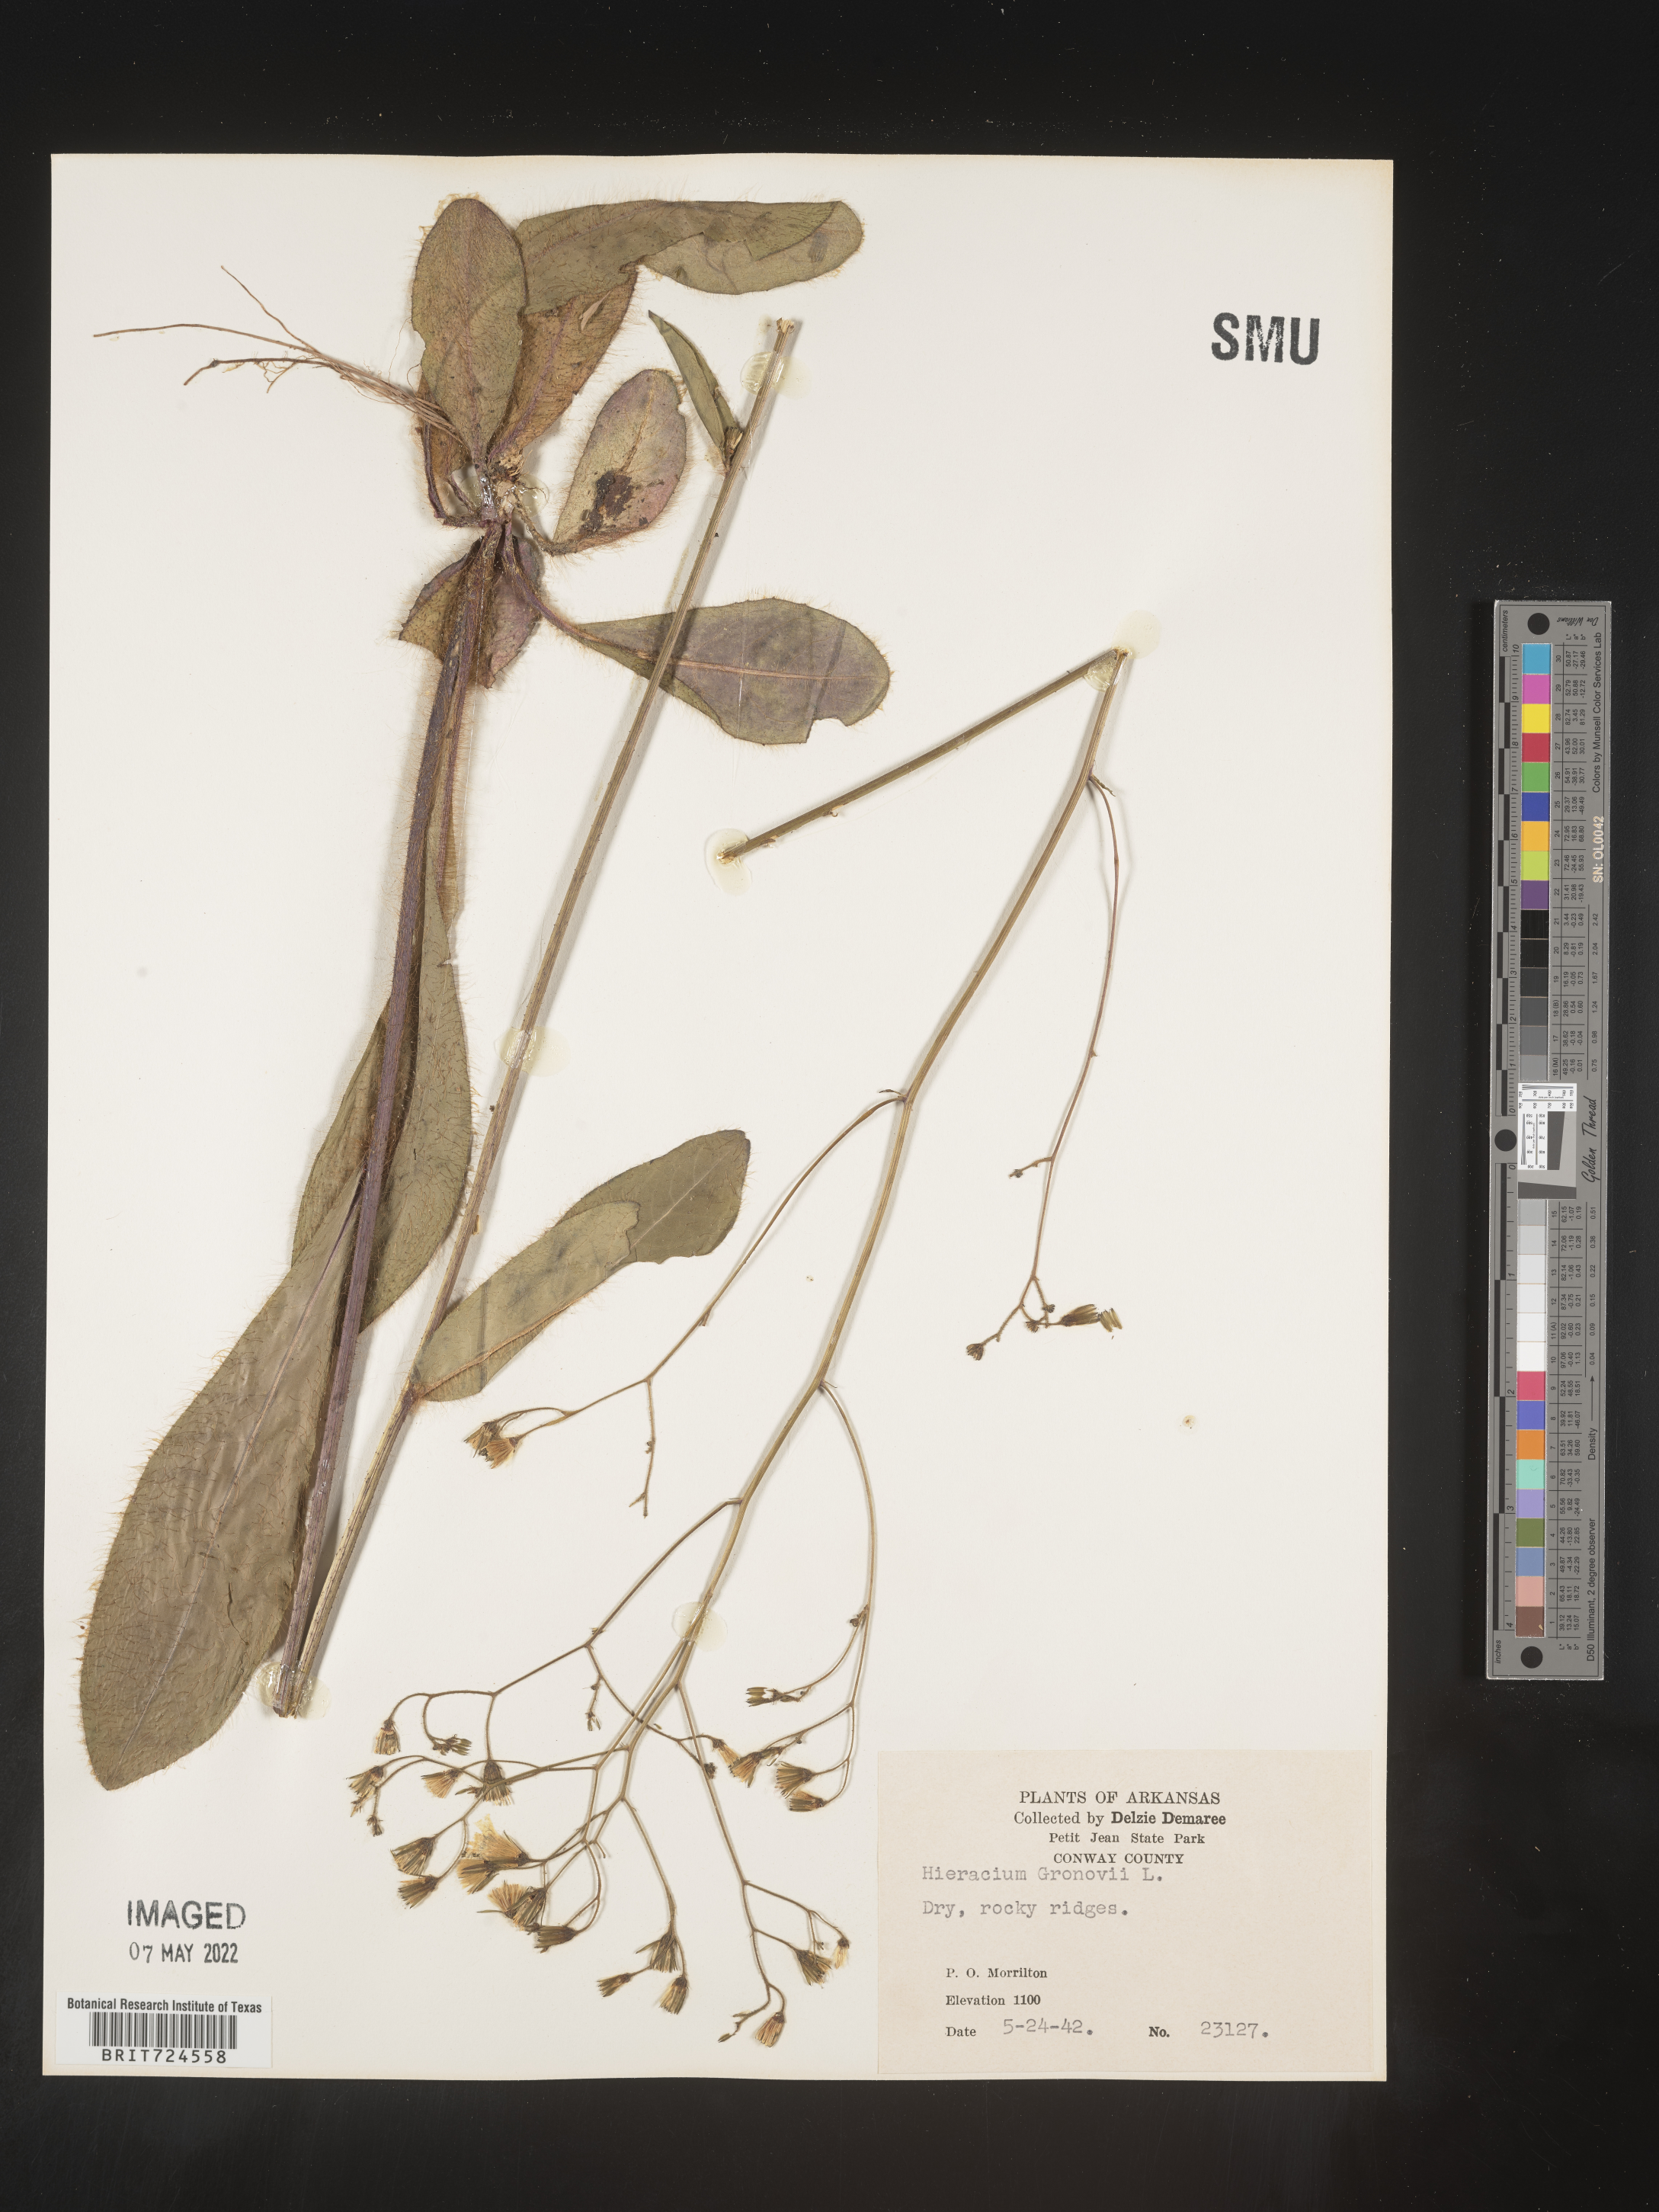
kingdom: Plantae
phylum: Tracheophyta
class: Magnoliopsida
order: Asterales
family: Asteraceae
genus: Hieracium
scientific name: Hieracium gronovii
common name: Beaked hawkweed
